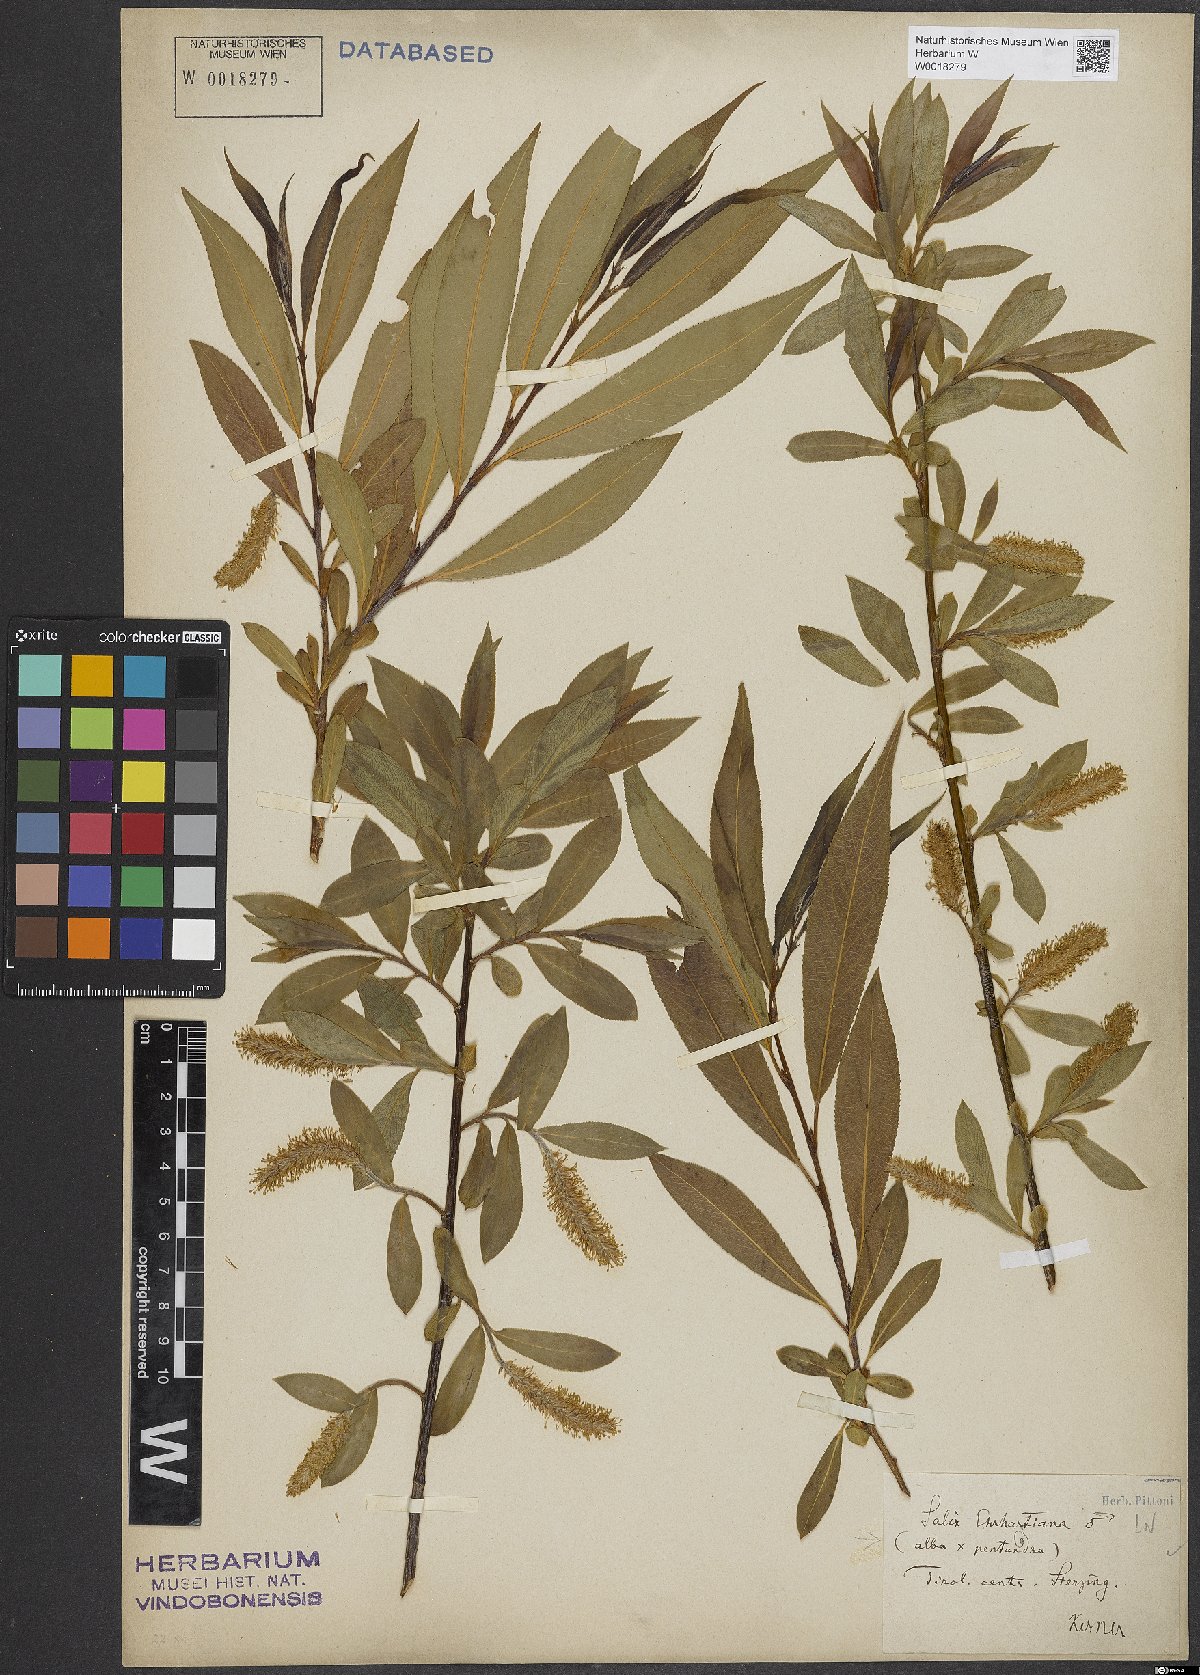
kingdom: Plantae
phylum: Tracheophyta
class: Magnoliopsida
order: Malpighiales
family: Salicaceae
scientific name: Salicaceae
